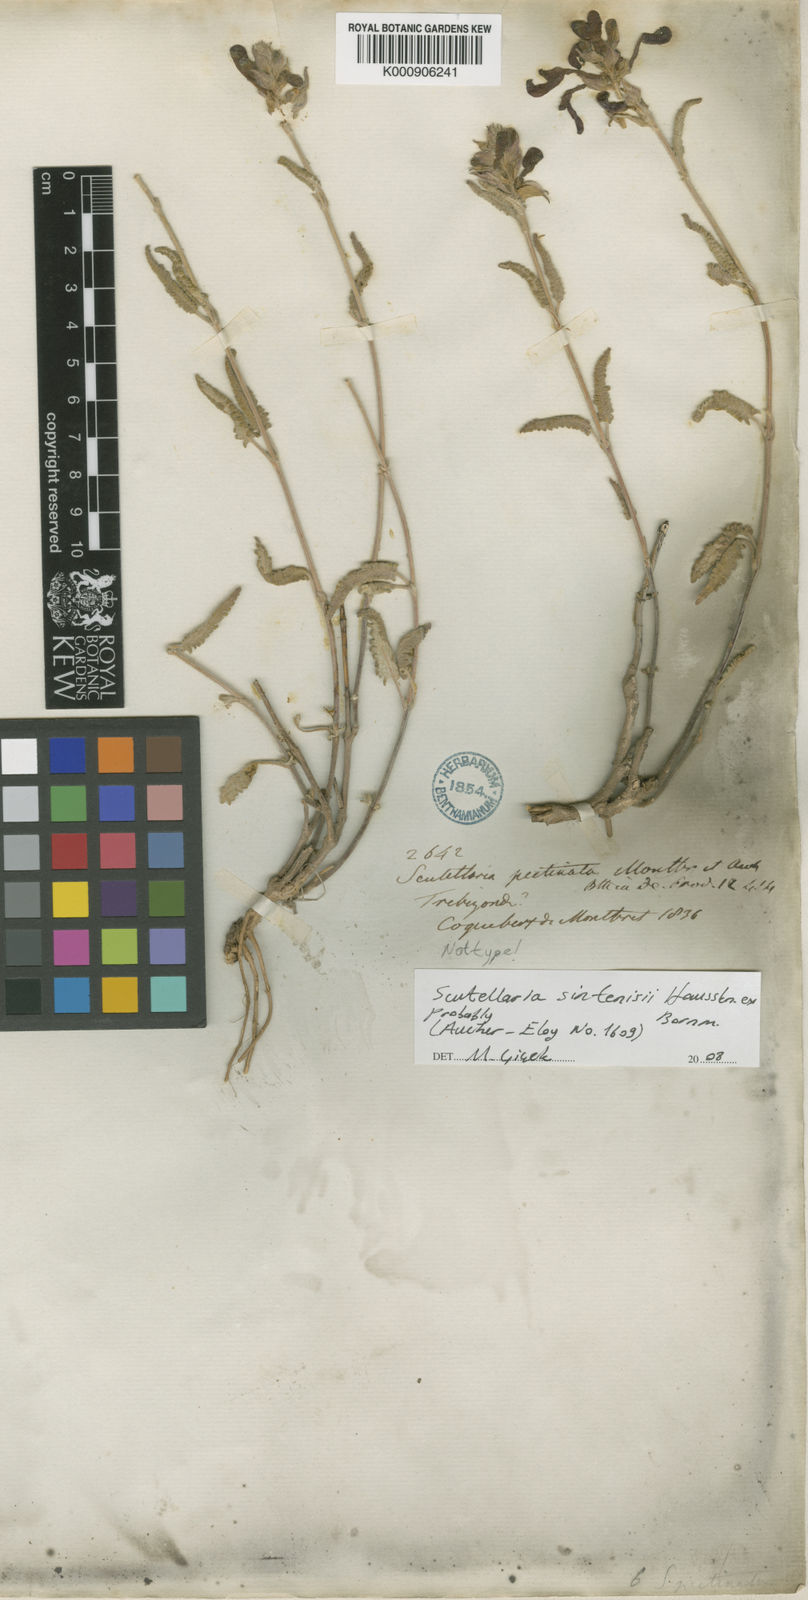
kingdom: Plantae
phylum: Tracheophyta
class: Magnoliopsida
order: Lamiales
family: Lamiaceae
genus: Scutellaria
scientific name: Scutellaria orientalis
